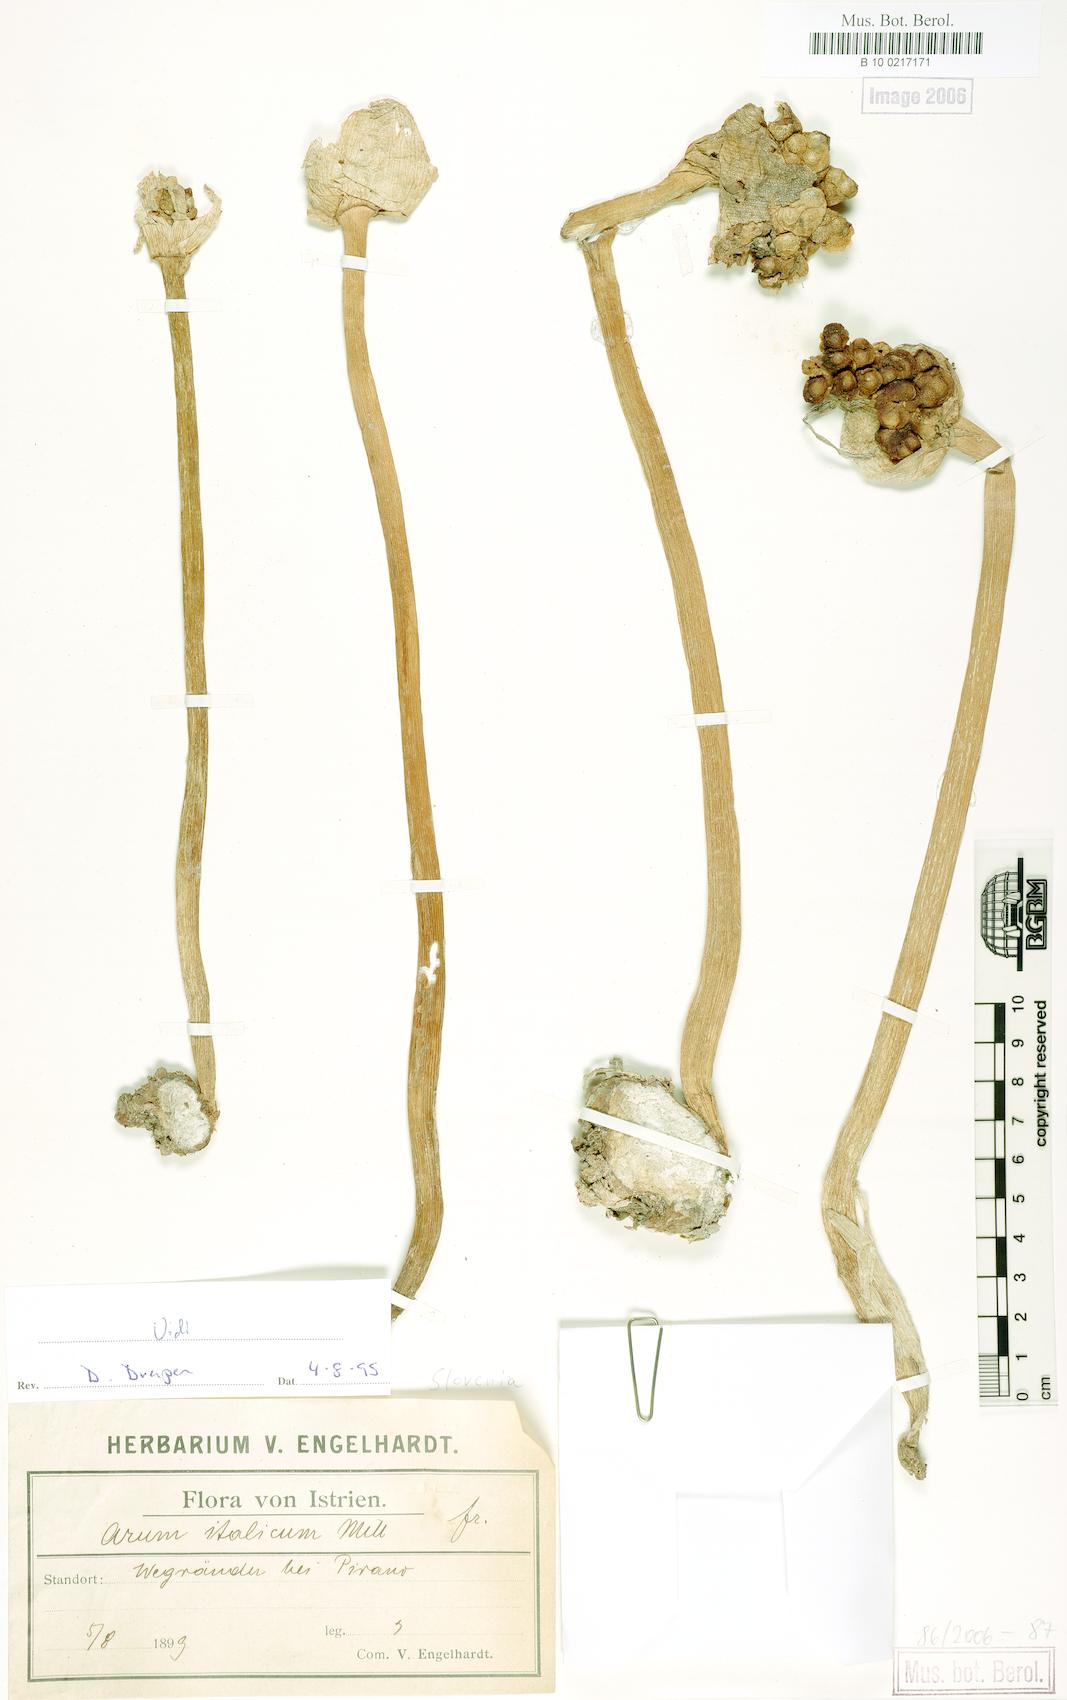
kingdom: Plantae
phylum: Tracheophyta
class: Liliopsida
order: Alismatales
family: Araceae
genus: Arum
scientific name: Arum italicum
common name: Italian lords-and-ladies
